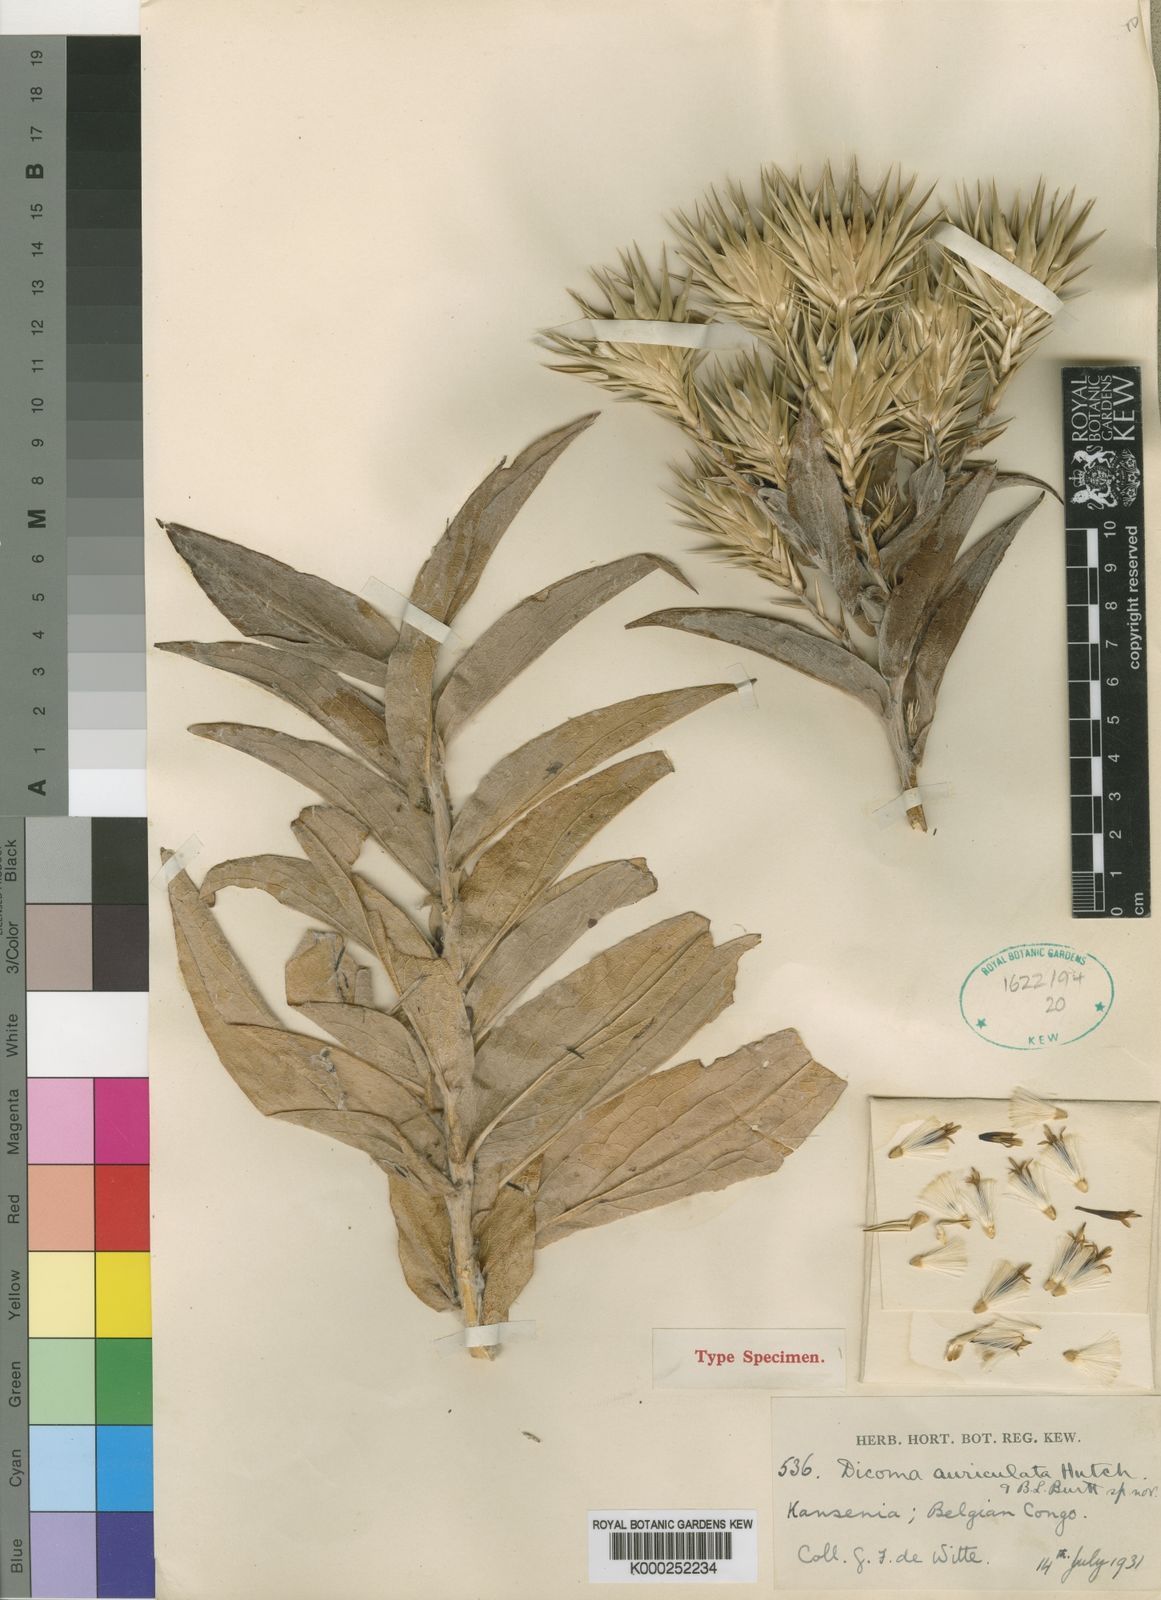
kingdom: Plantae
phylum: Tracheophyta
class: Magnoliopsida
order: Asterales
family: Asteraceae
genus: Macledium
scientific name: Macledium auriculatum
